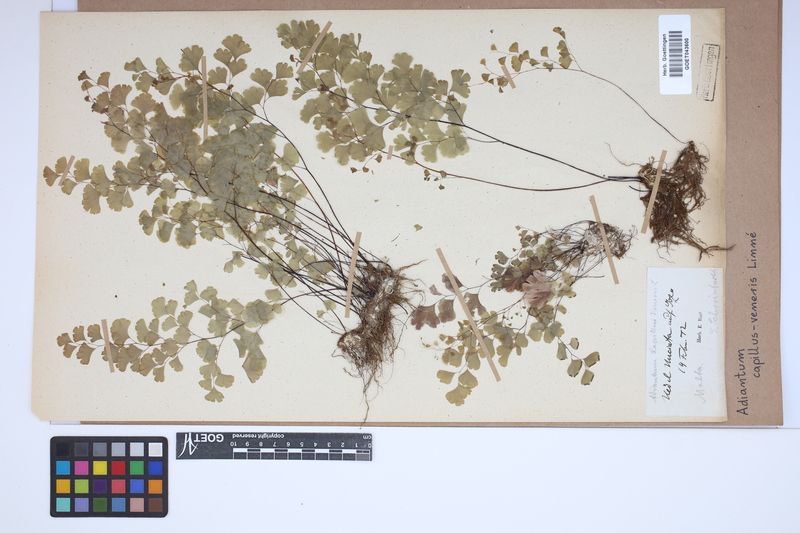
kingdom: Plantae
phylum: Tracheophyta
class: Polypodiopsida
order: Polypodiales
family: Pteridaceae
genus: Adiantum
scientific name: Adiantum capillus-veneris
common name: Maidenhair fern
